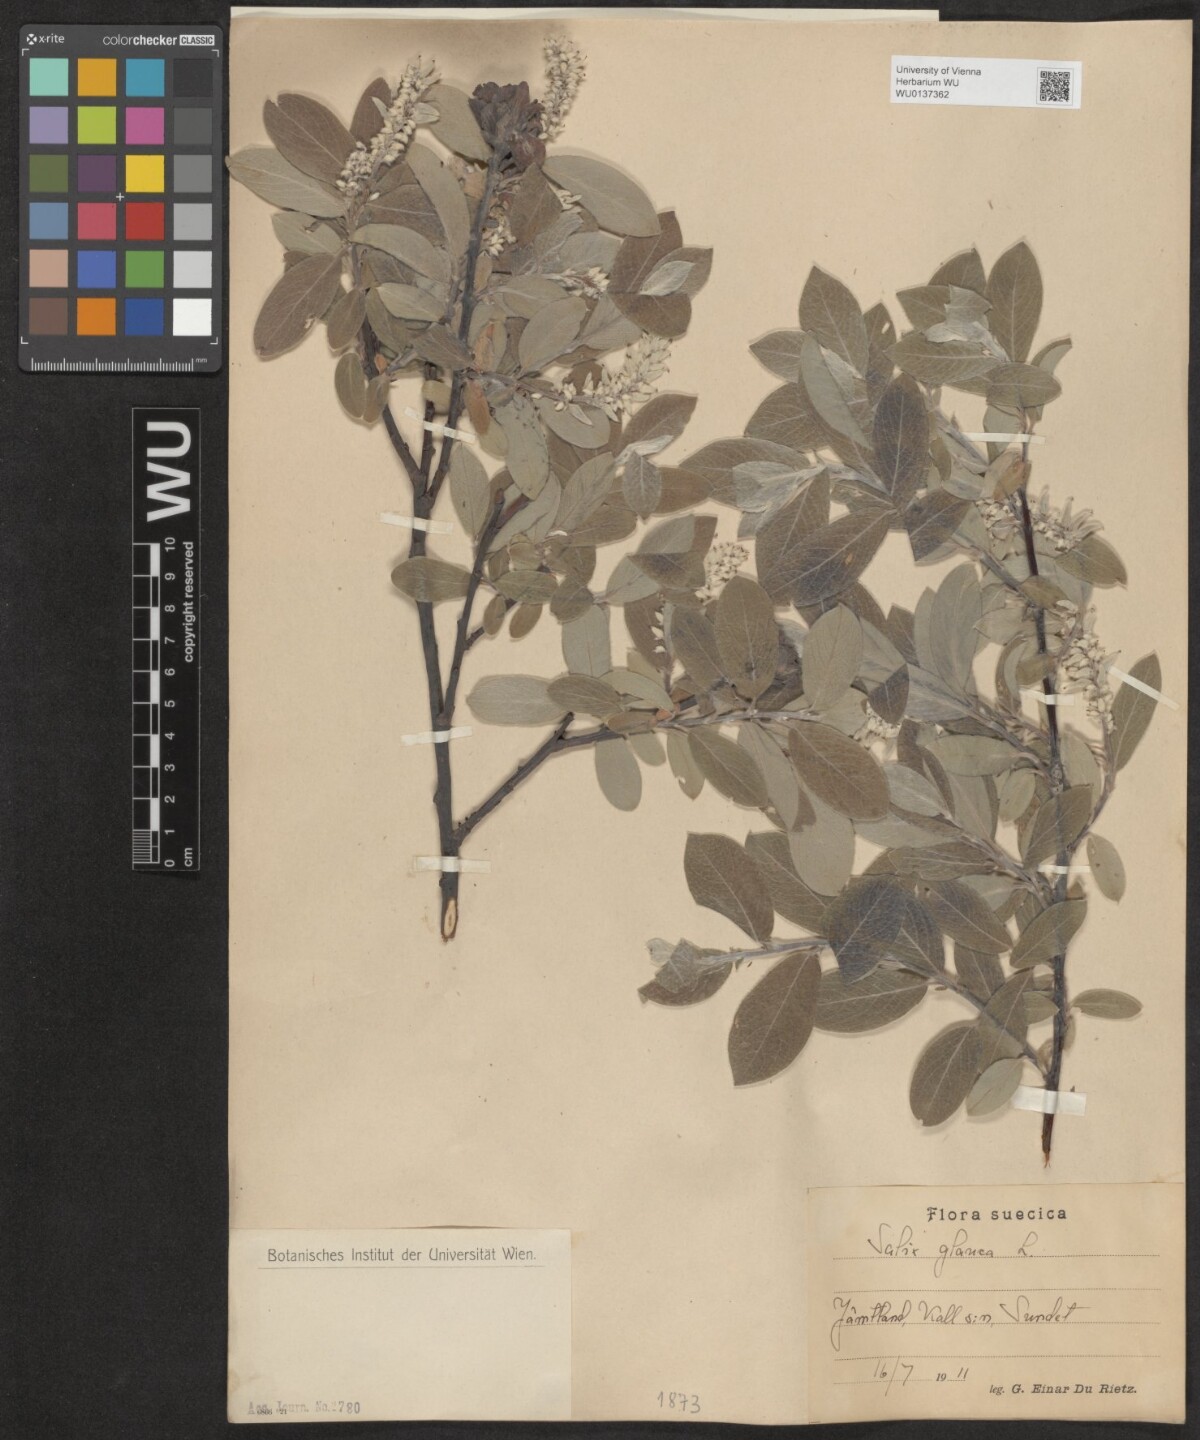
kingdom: Plantae
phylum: Tracheophyta
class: Magnoliopsida
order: Malpighiales
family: Salicaceae
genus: Salix
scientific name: Salix glauca
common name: Glaucous willow
